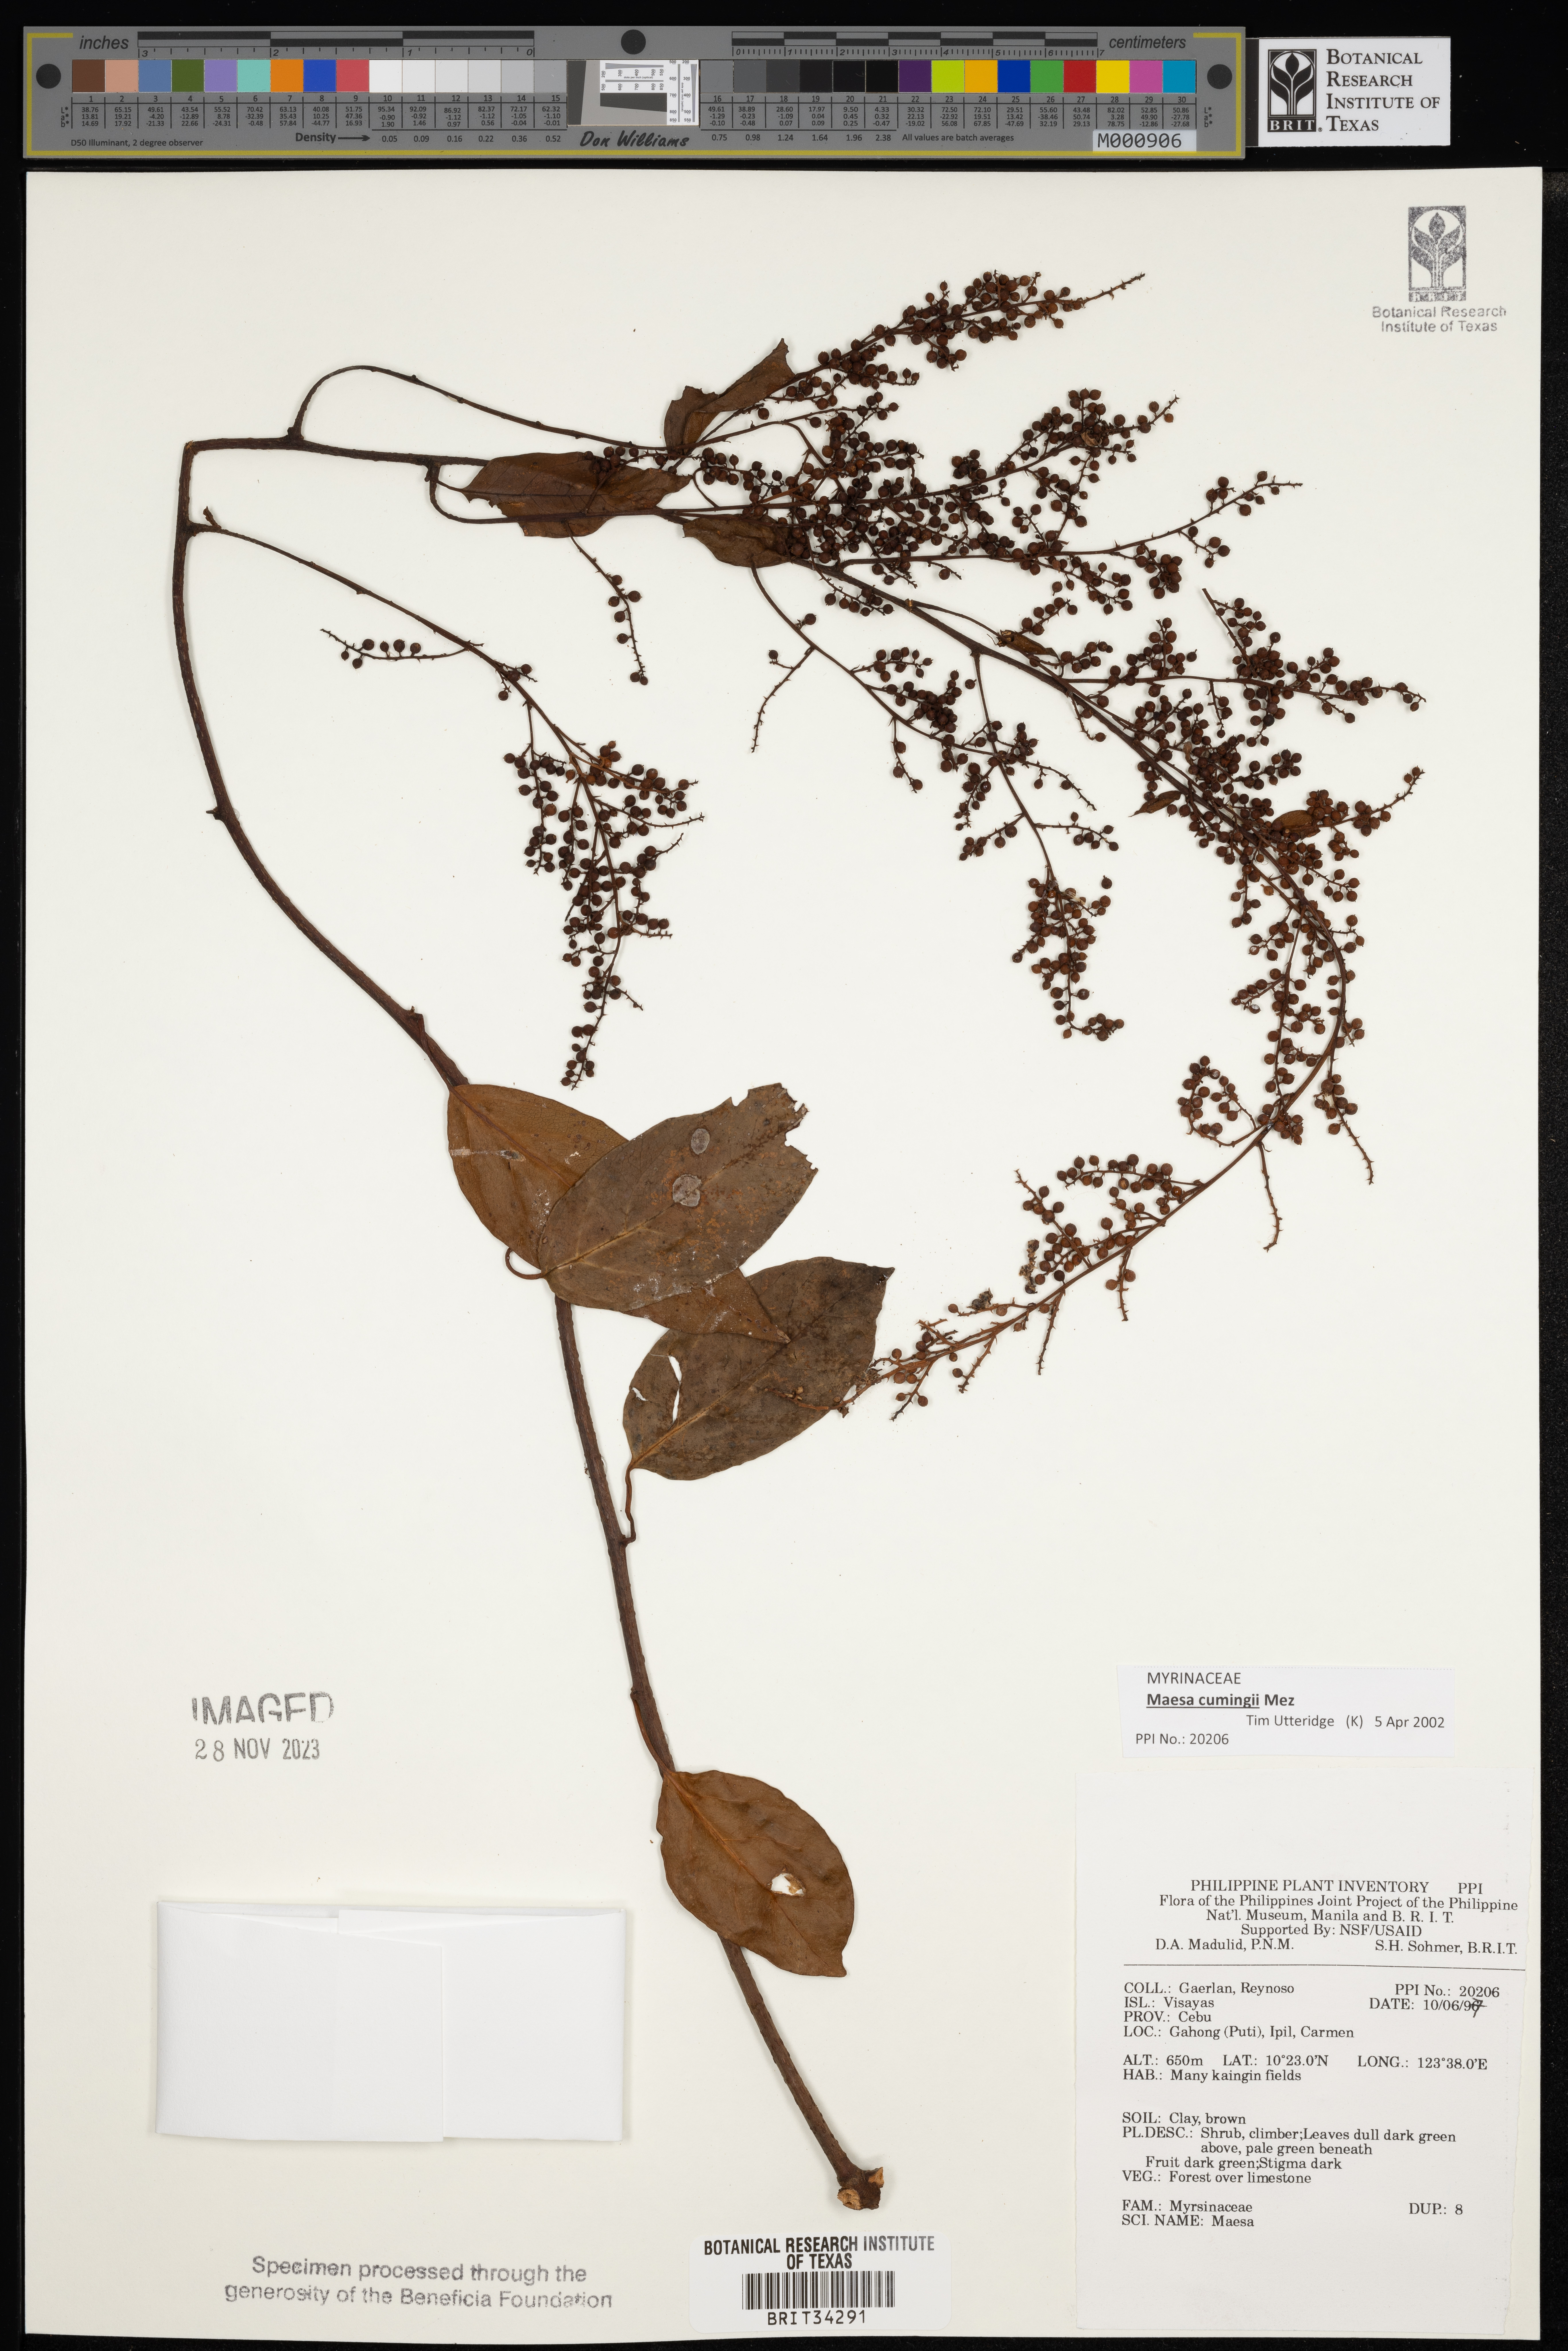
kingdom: Plantae
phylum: Tracheophyta
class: Magnoliopsida
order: Ericales
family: Primulaceae
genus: Maesa
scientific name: Maesa
